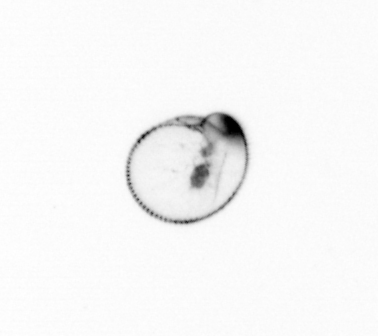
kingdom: Chromista
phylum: Myzozoa
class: Dinophyceae
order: Noctilucales
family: Noctilucaceae
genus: Noctiluca
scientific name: Noctiluca scintillans
